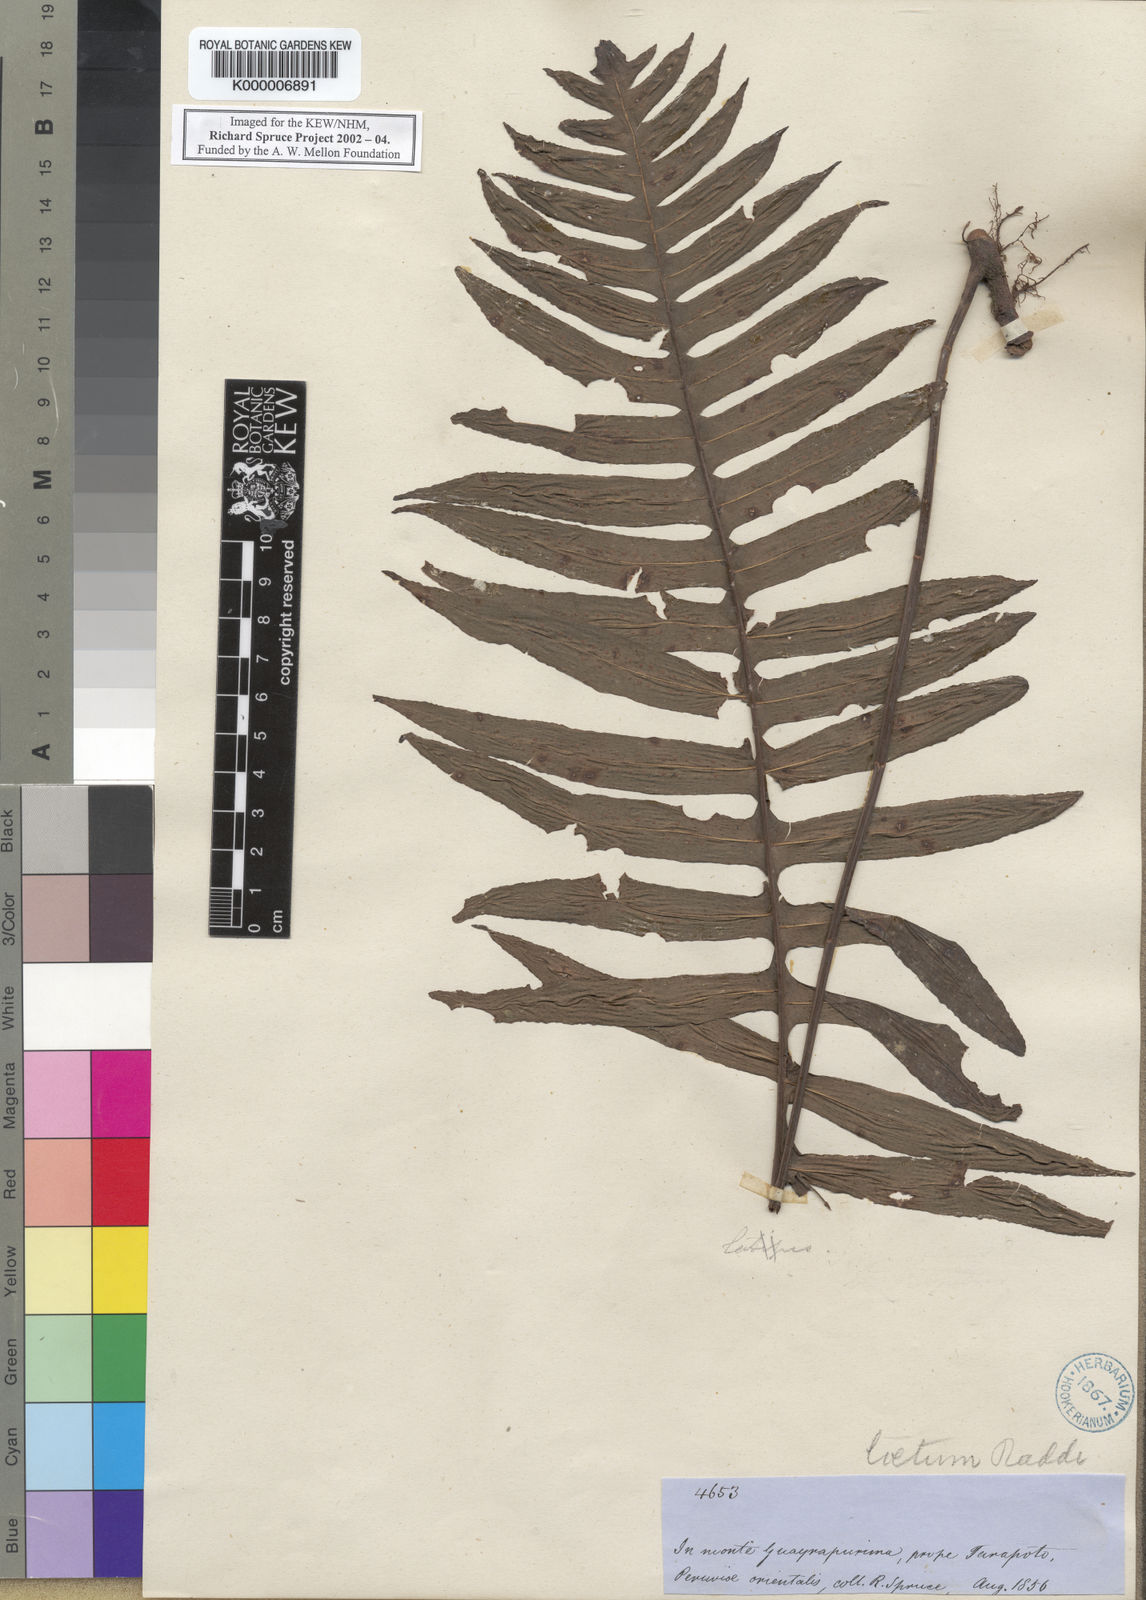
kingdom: Plantae
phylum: Tracheophyta
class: Polypodiopsida
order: Polypodiales
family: Polypodiaceae
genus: Serpocaulon
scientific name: Serpocaulon loriceum
